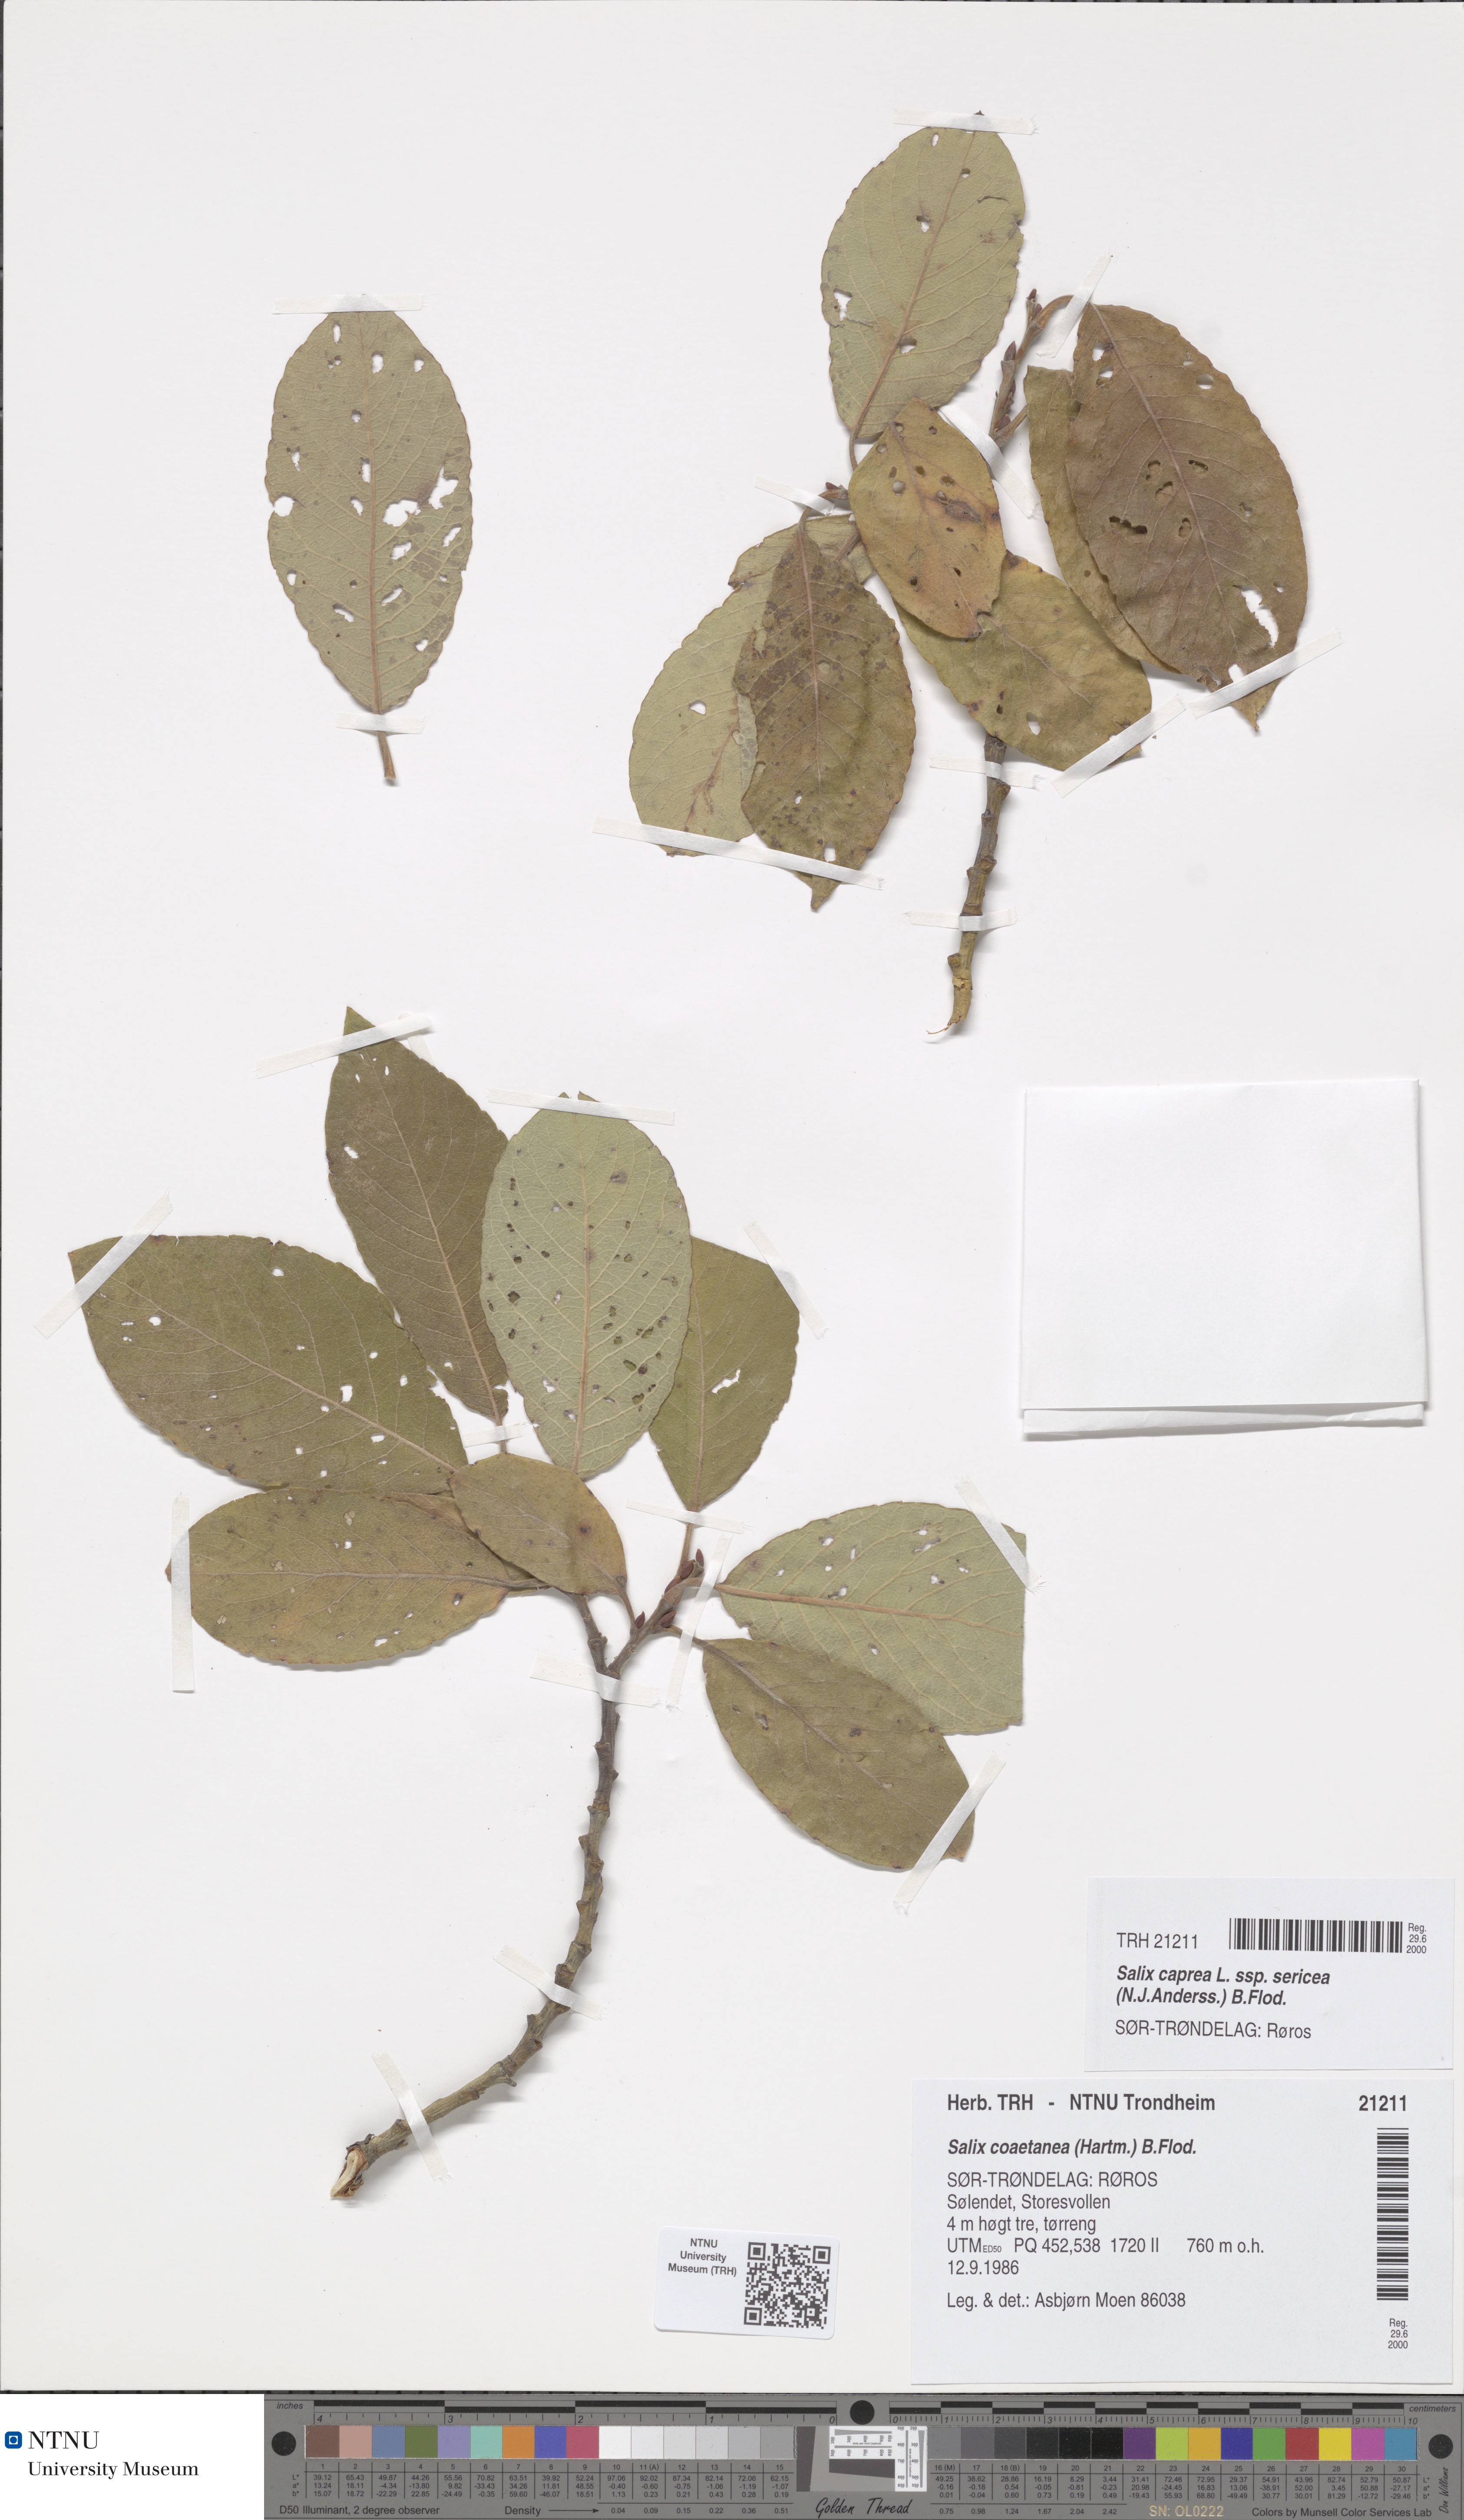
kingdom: Plantae
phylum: Tracheophyta
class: Magnoliopsida
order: Malpighiales
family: Salicaceae
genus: Salix
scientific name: Salix caprea
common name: Goat willow
